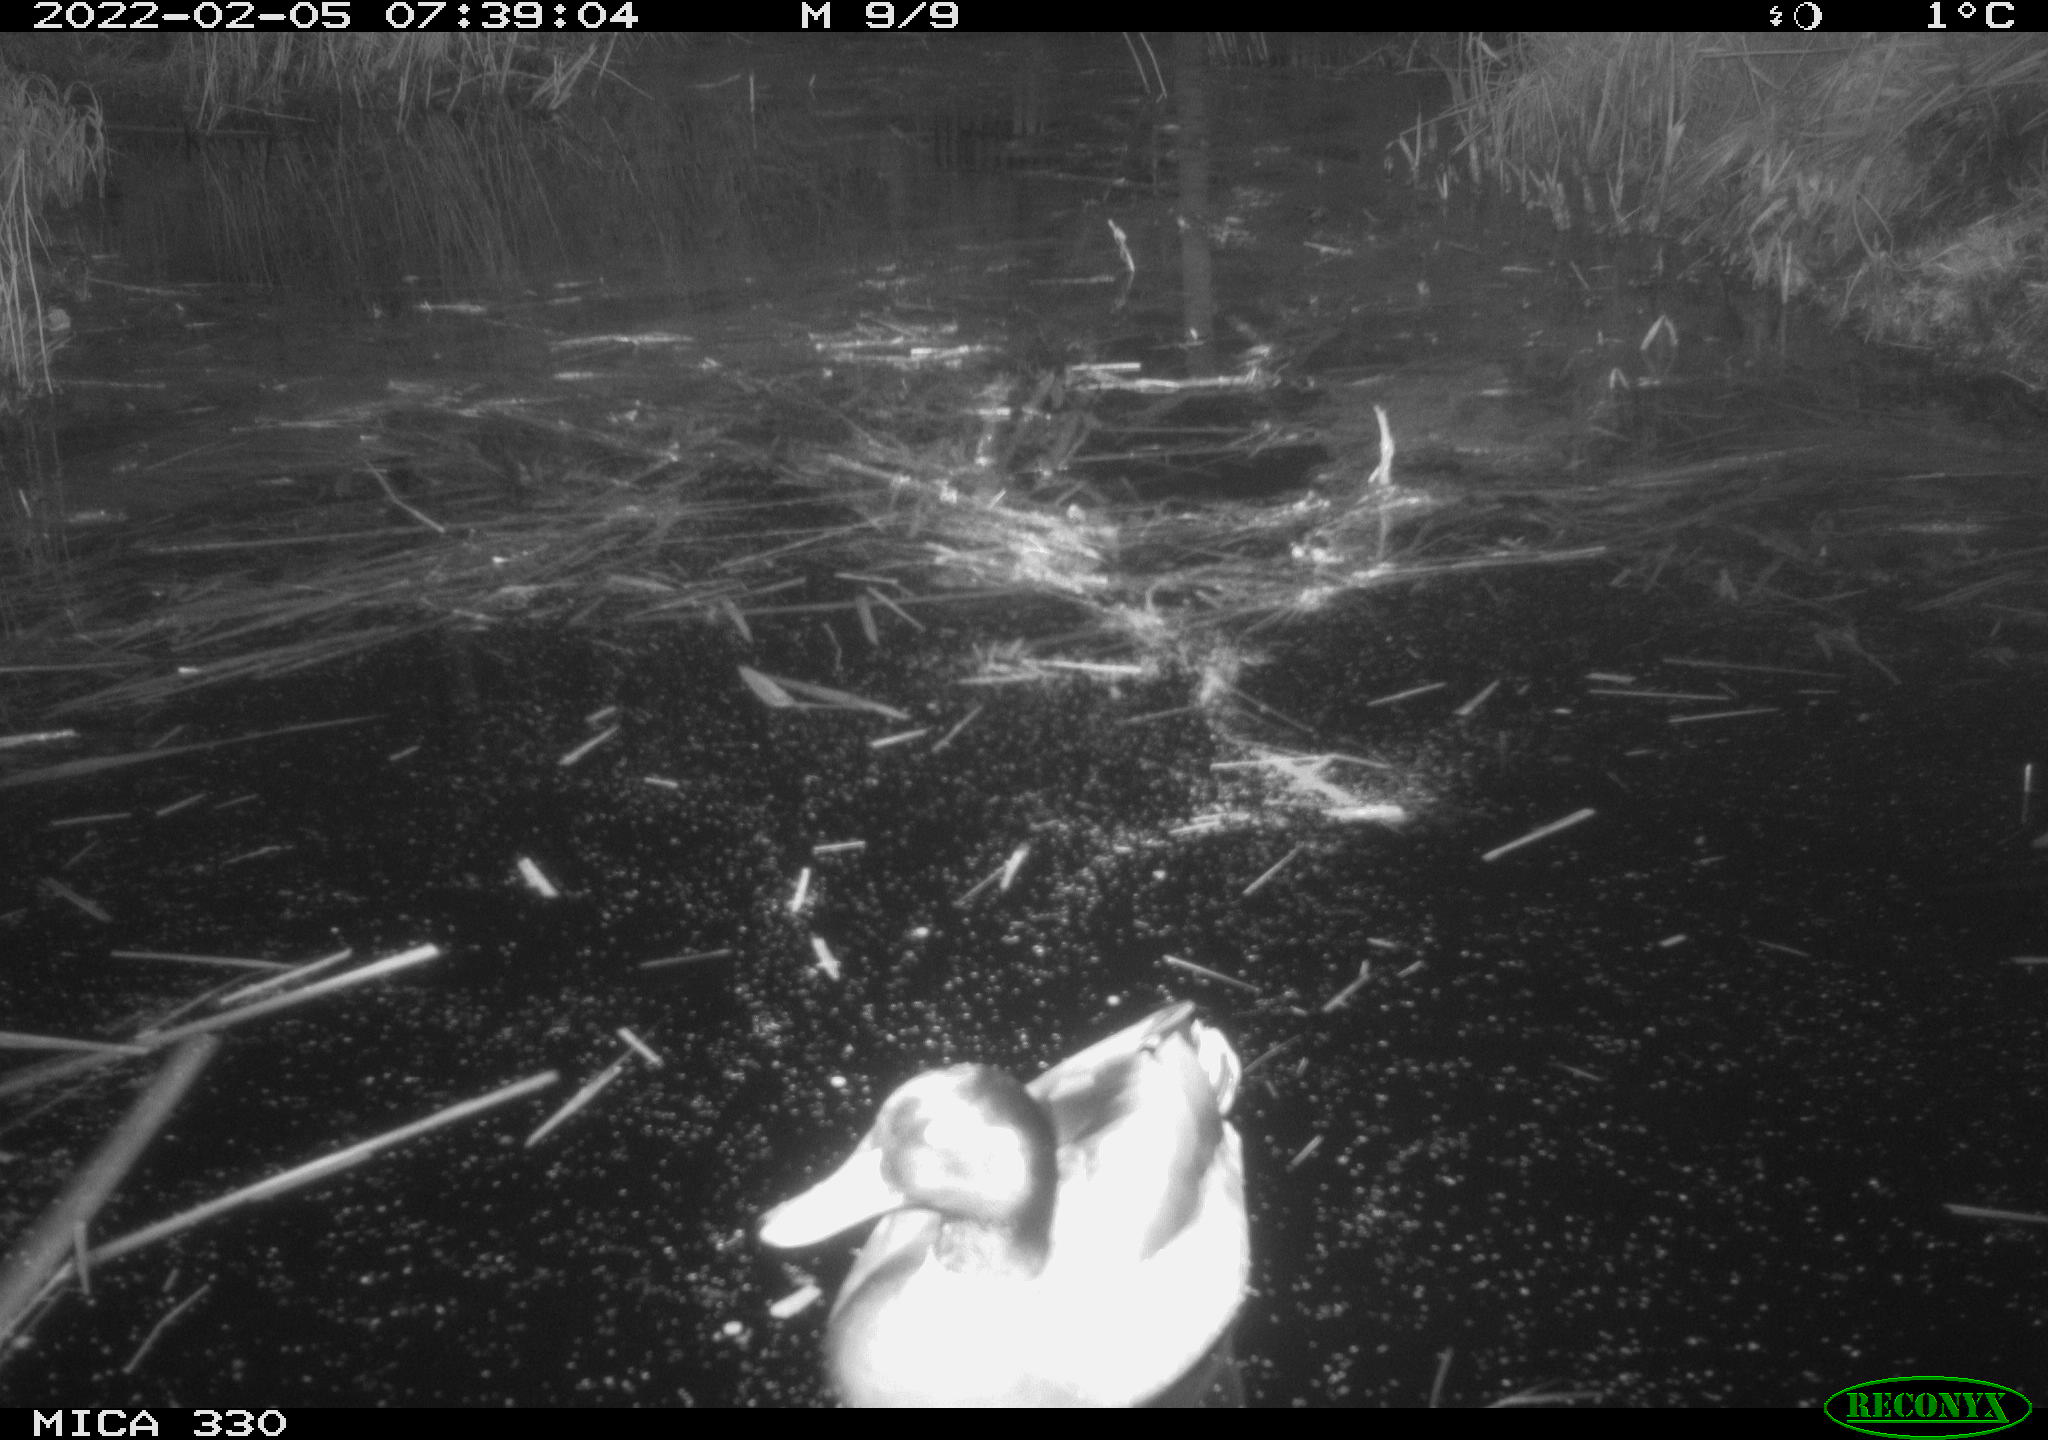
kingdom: Animalia
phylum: Chordata
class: Aves
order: Anseriformes
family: Anatidae
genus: Anas
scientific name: Anas platyrhynchos
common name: Mallard
